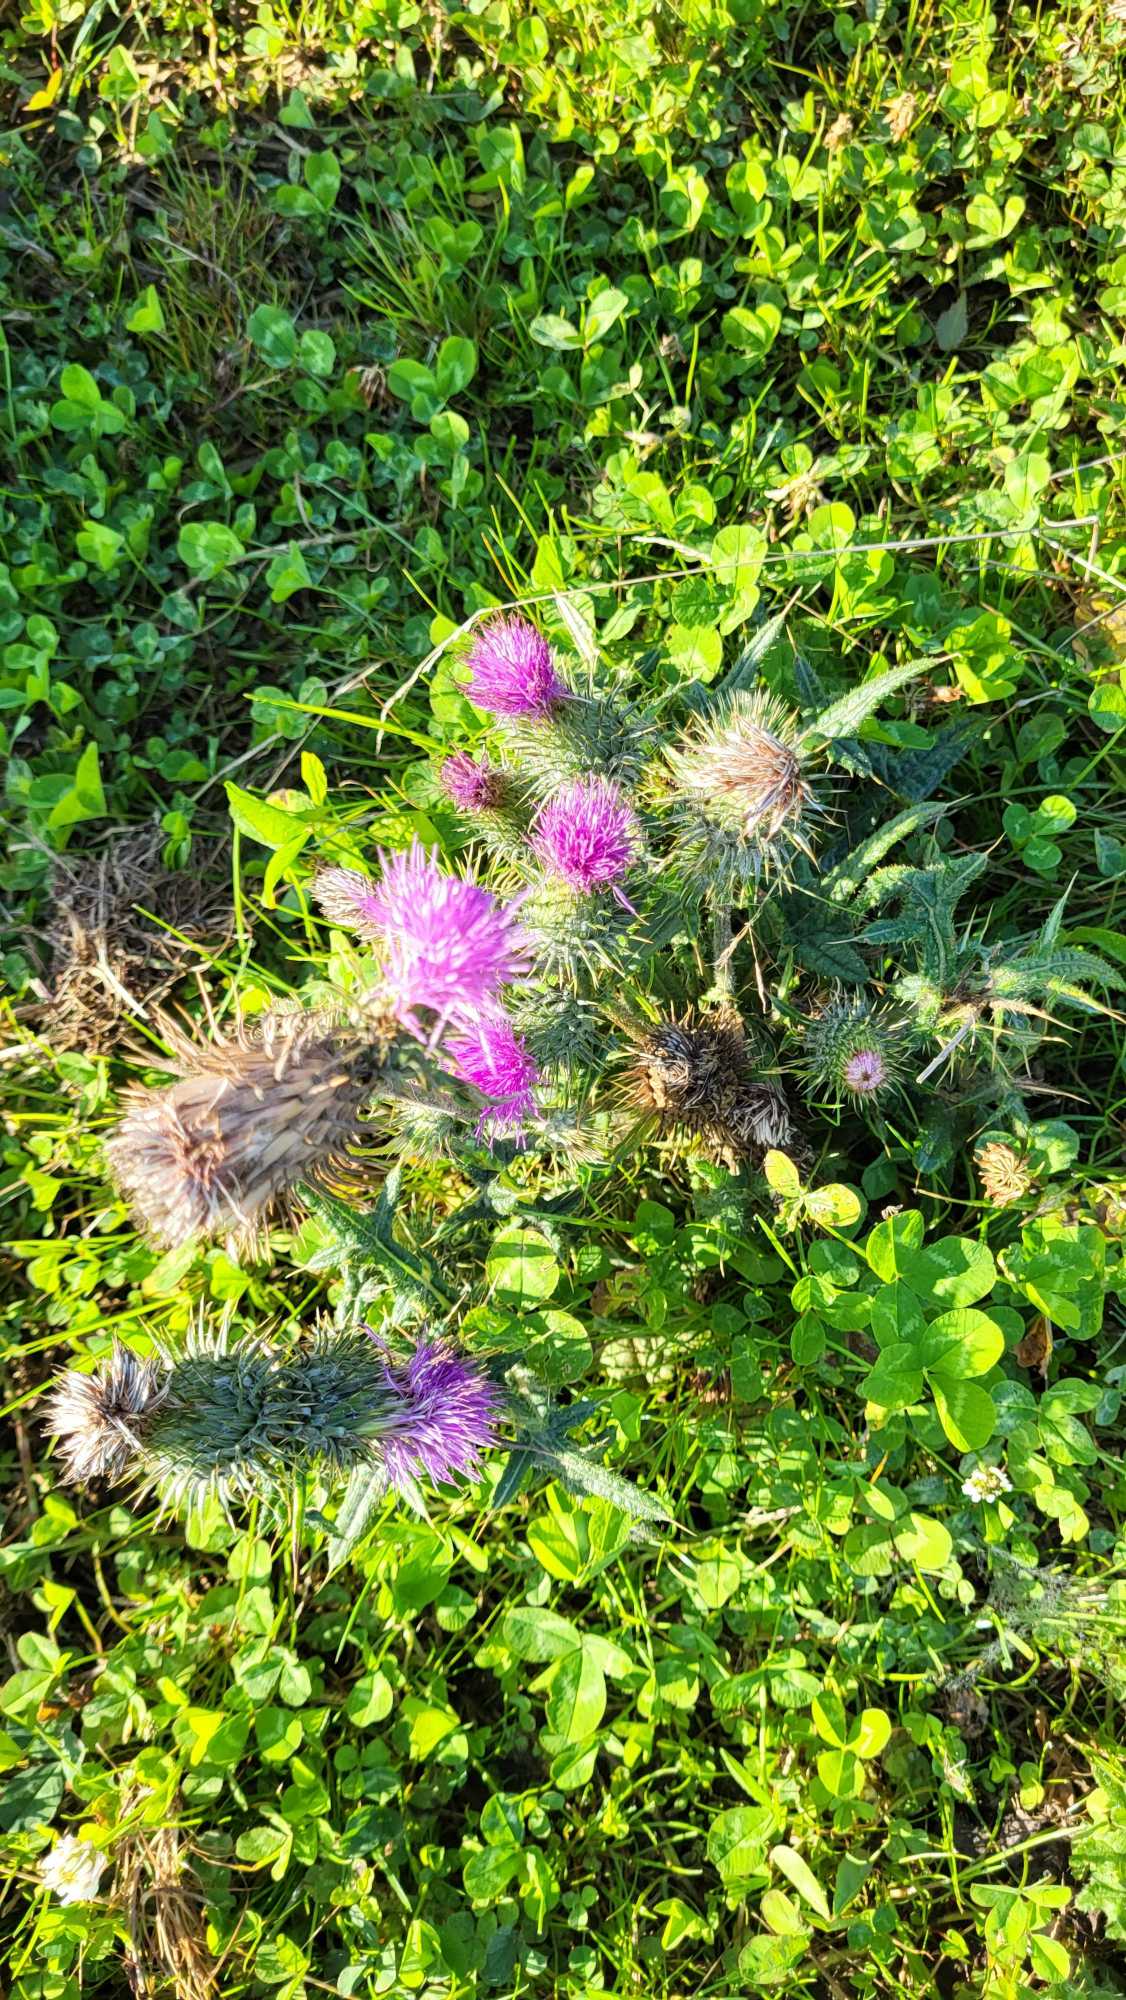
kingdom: Plantae
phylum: Tracheophyta
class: Magnoliopsida
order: Asterales
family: Asteraceae
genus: Cirsium
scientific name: Cirsium vulgare
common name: Horse-tidsel
